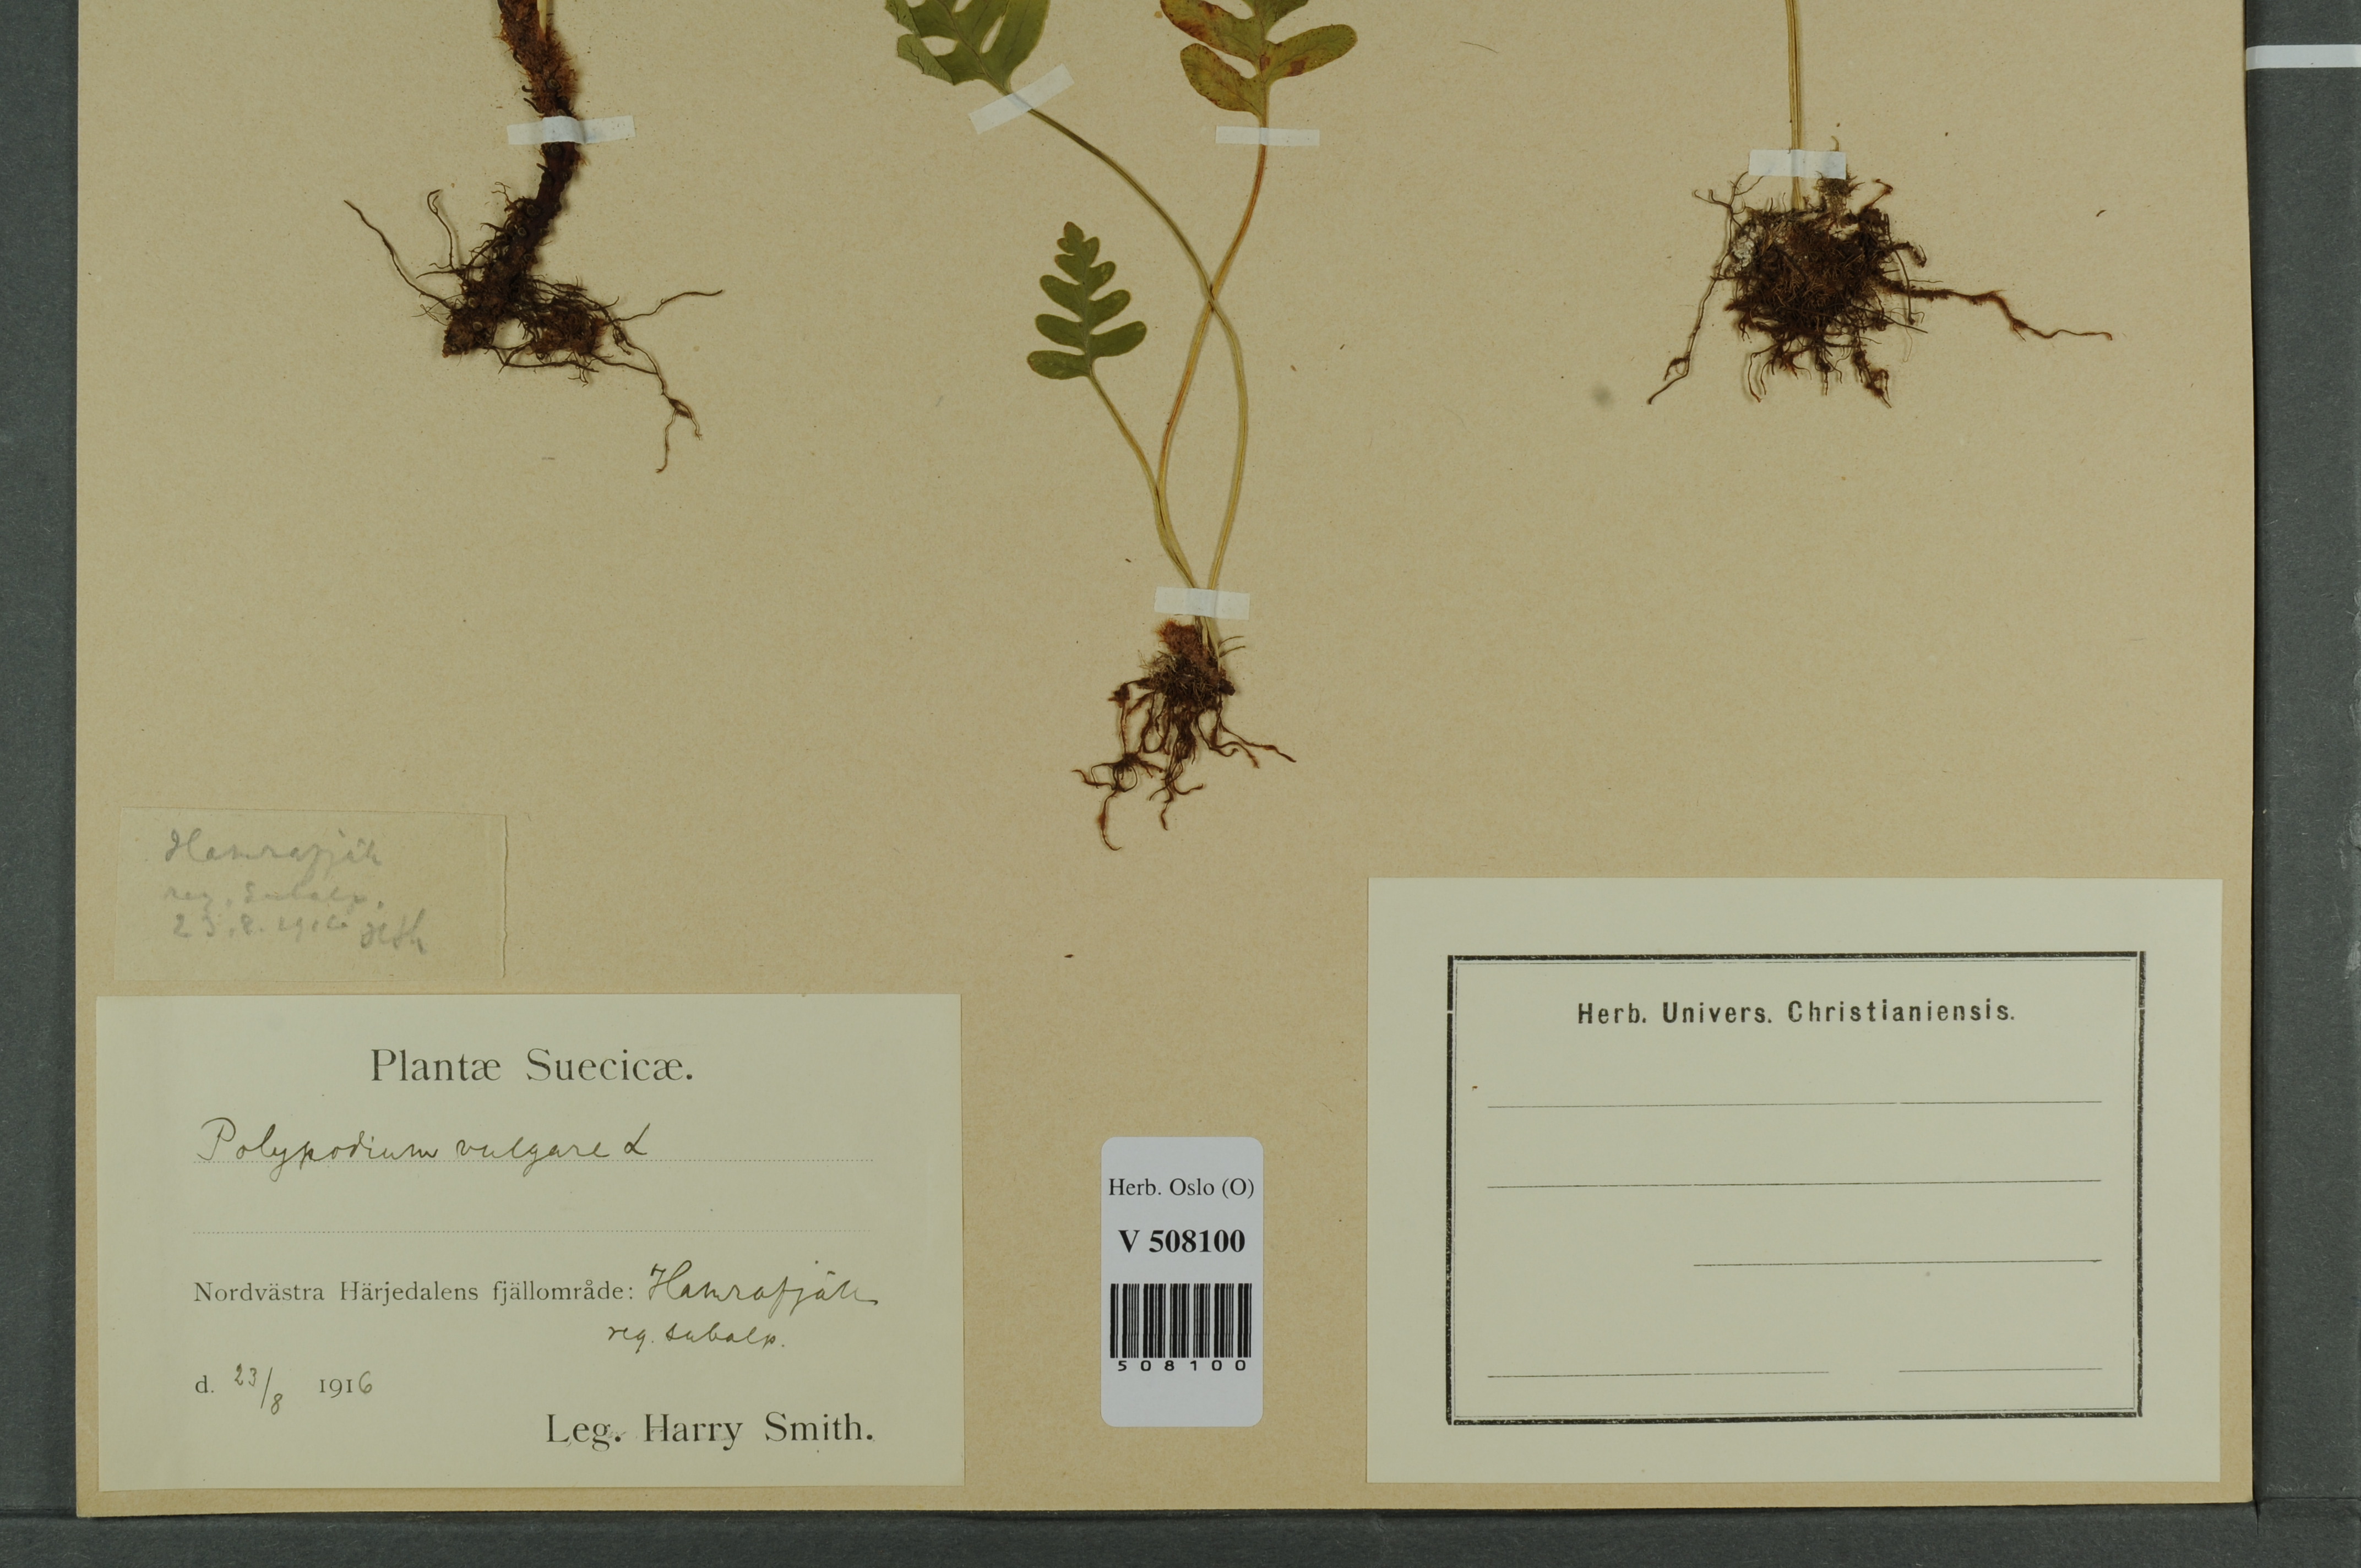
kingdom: Plantae
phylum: Tracheophyta
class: Polypodiopsida
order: Polypodiales
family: Polypodiaceae
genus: Polypodium
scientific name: Polypodium vulgare
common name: Common polypody
